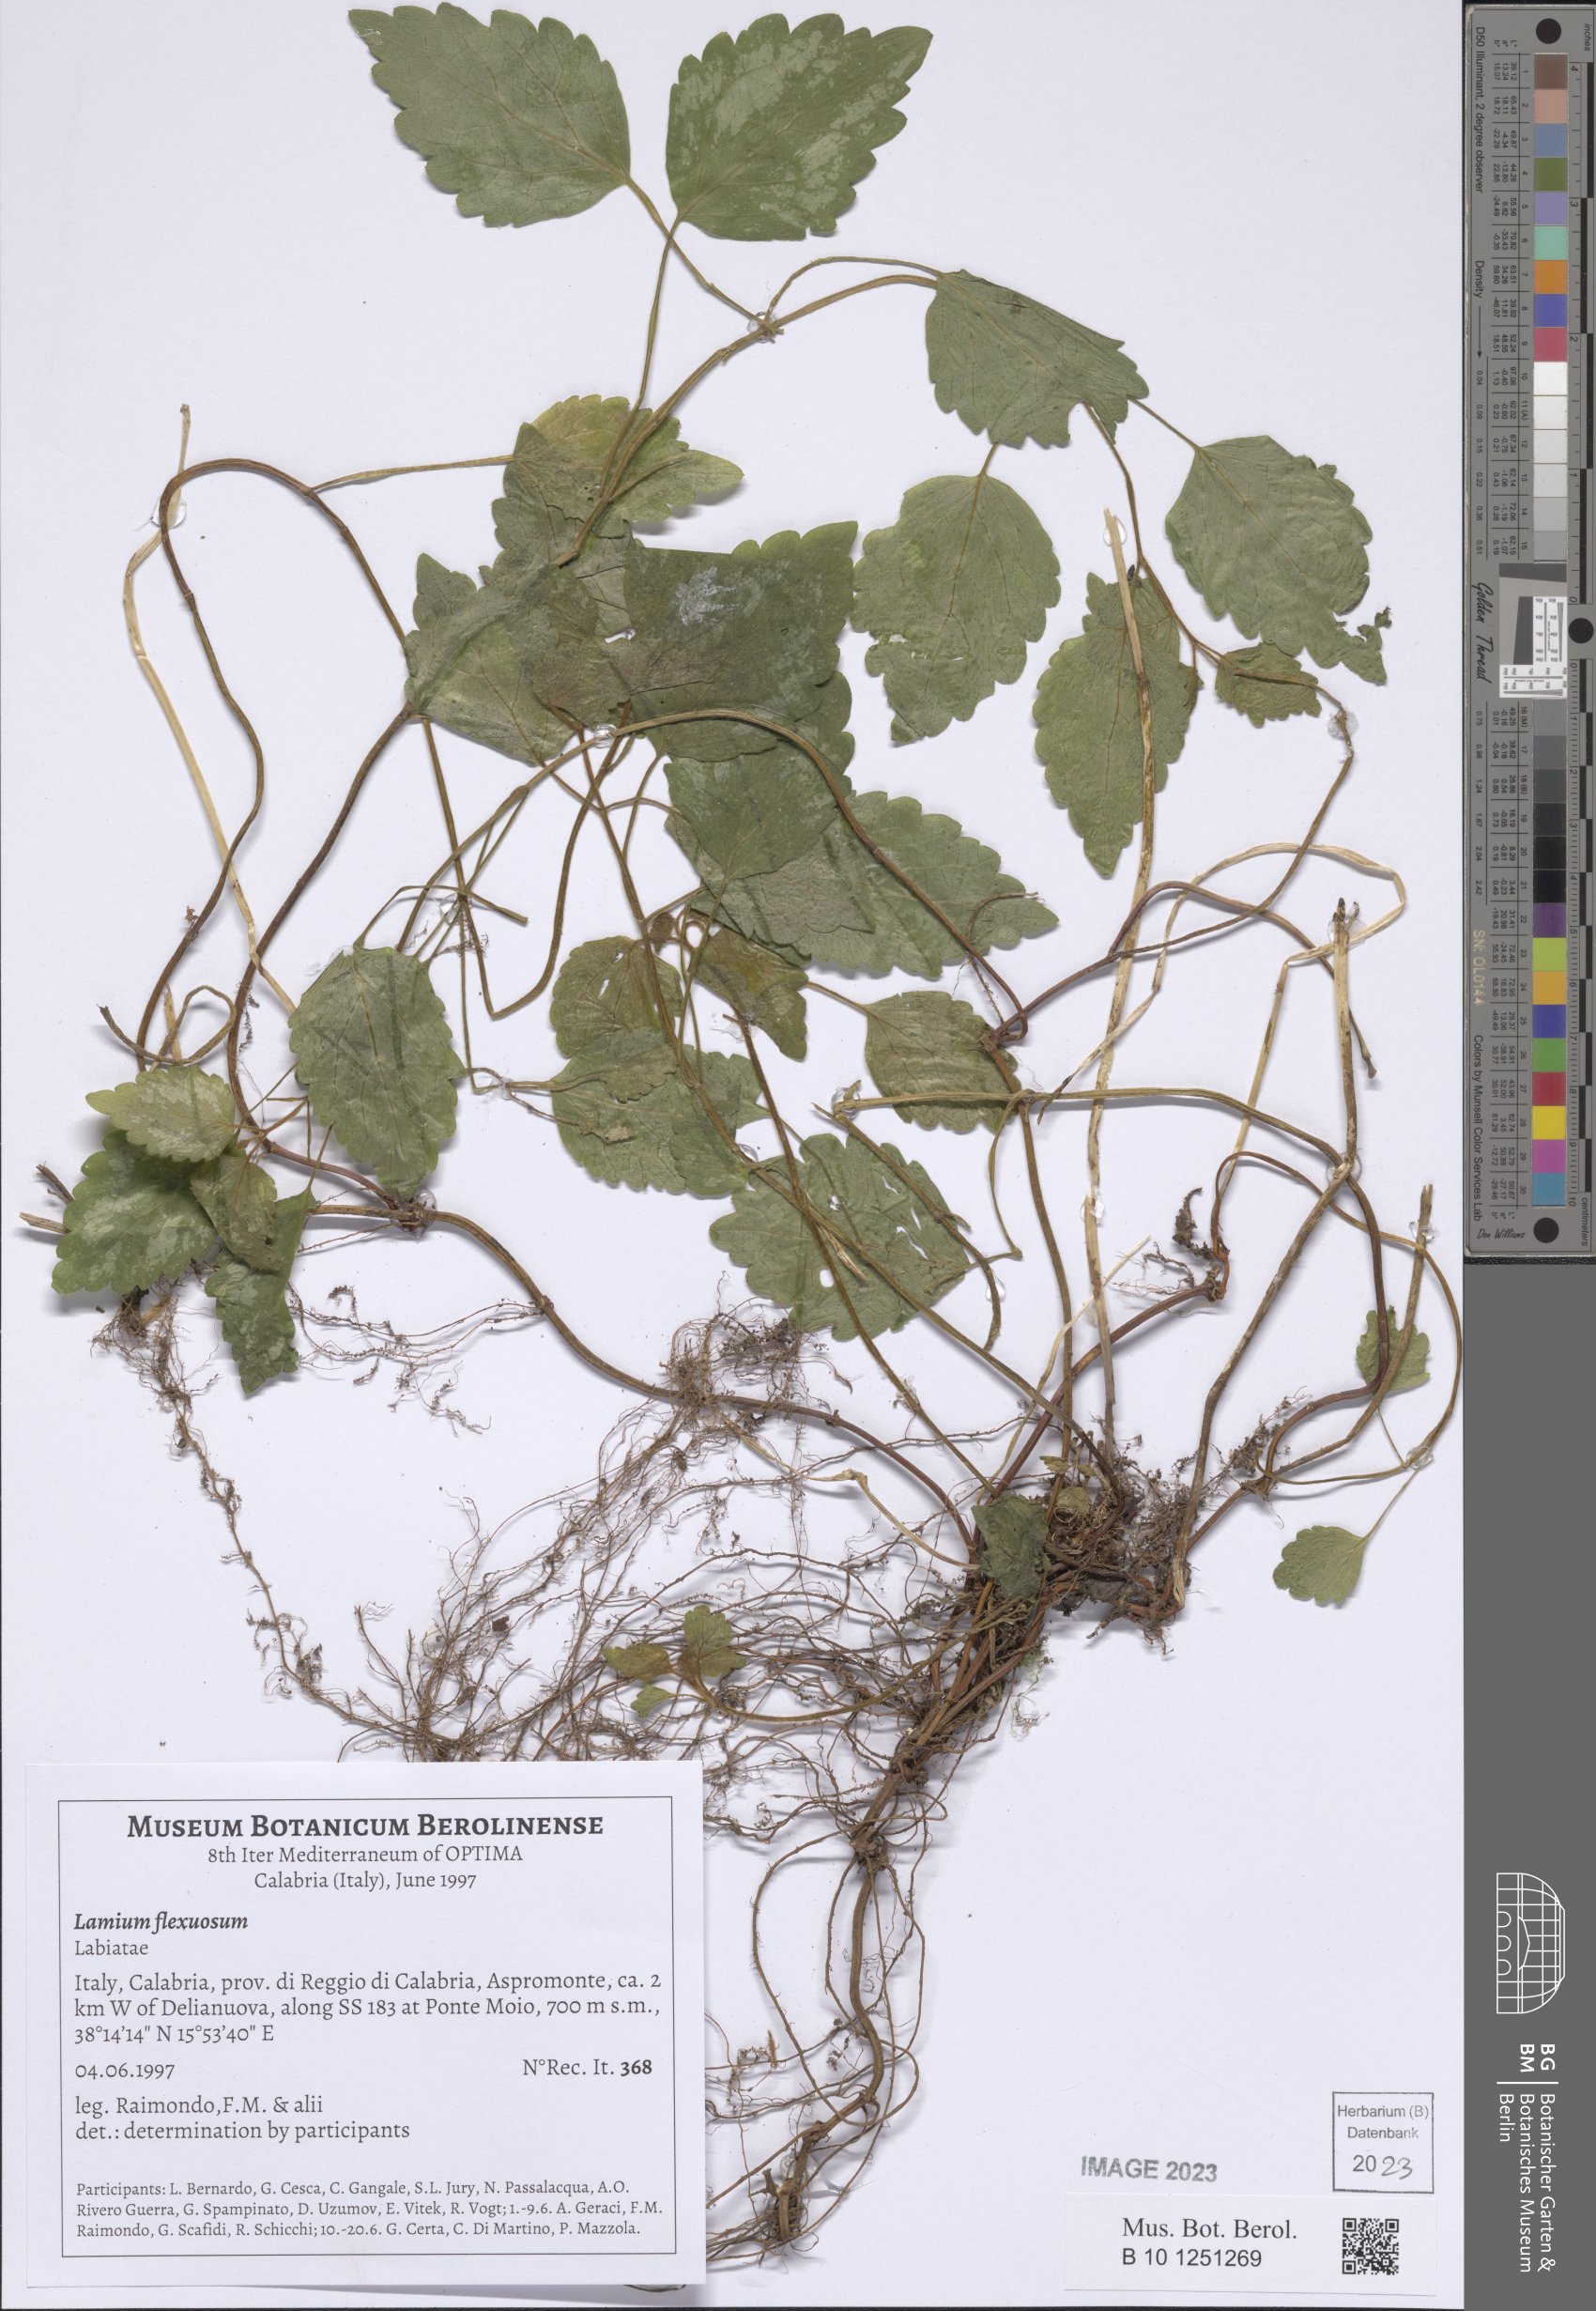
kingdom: Plantae
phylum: Tracheophyta
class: Magnoliopsida
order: Lamiales
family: Lamiaceae
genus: Lamium
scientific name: Lamium flexuosum
